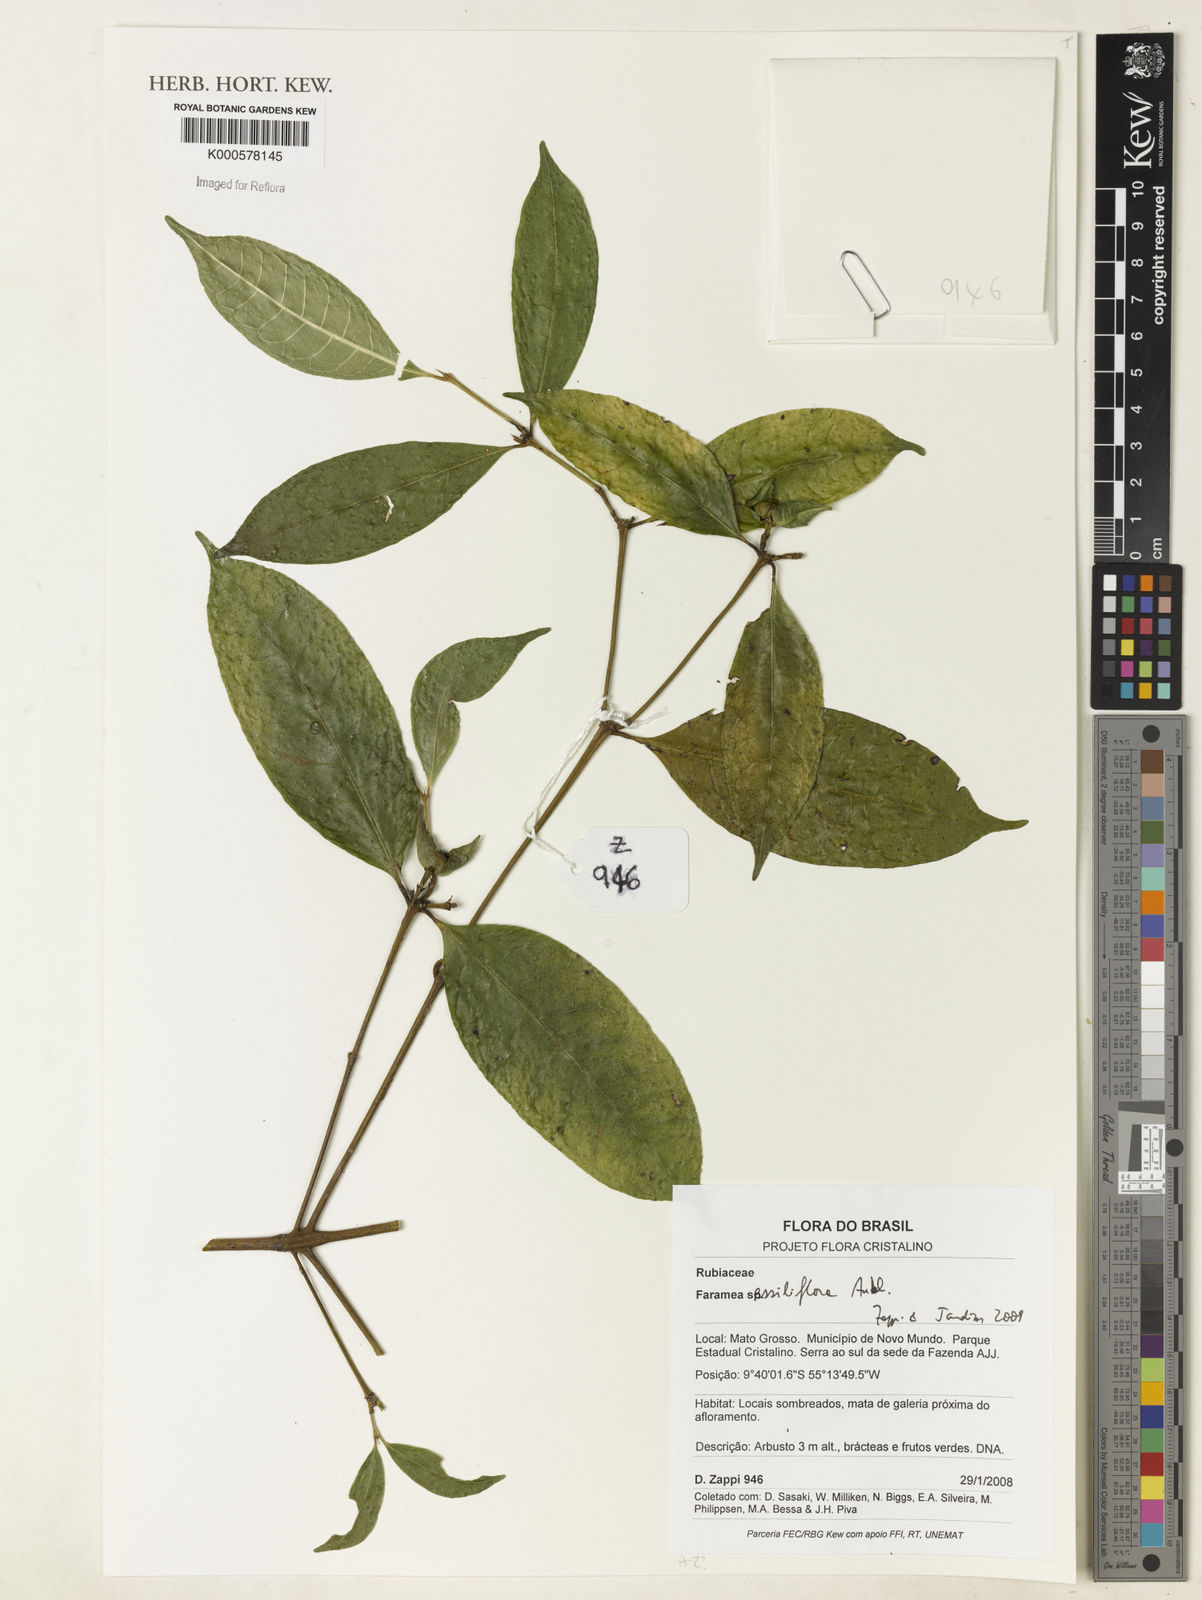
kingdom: Plantae
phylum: Tracheophyta
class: Magnoliopsida
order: Gentianales
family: Rubiaceae
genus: Faramea
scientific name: Faramea sessiliflora
